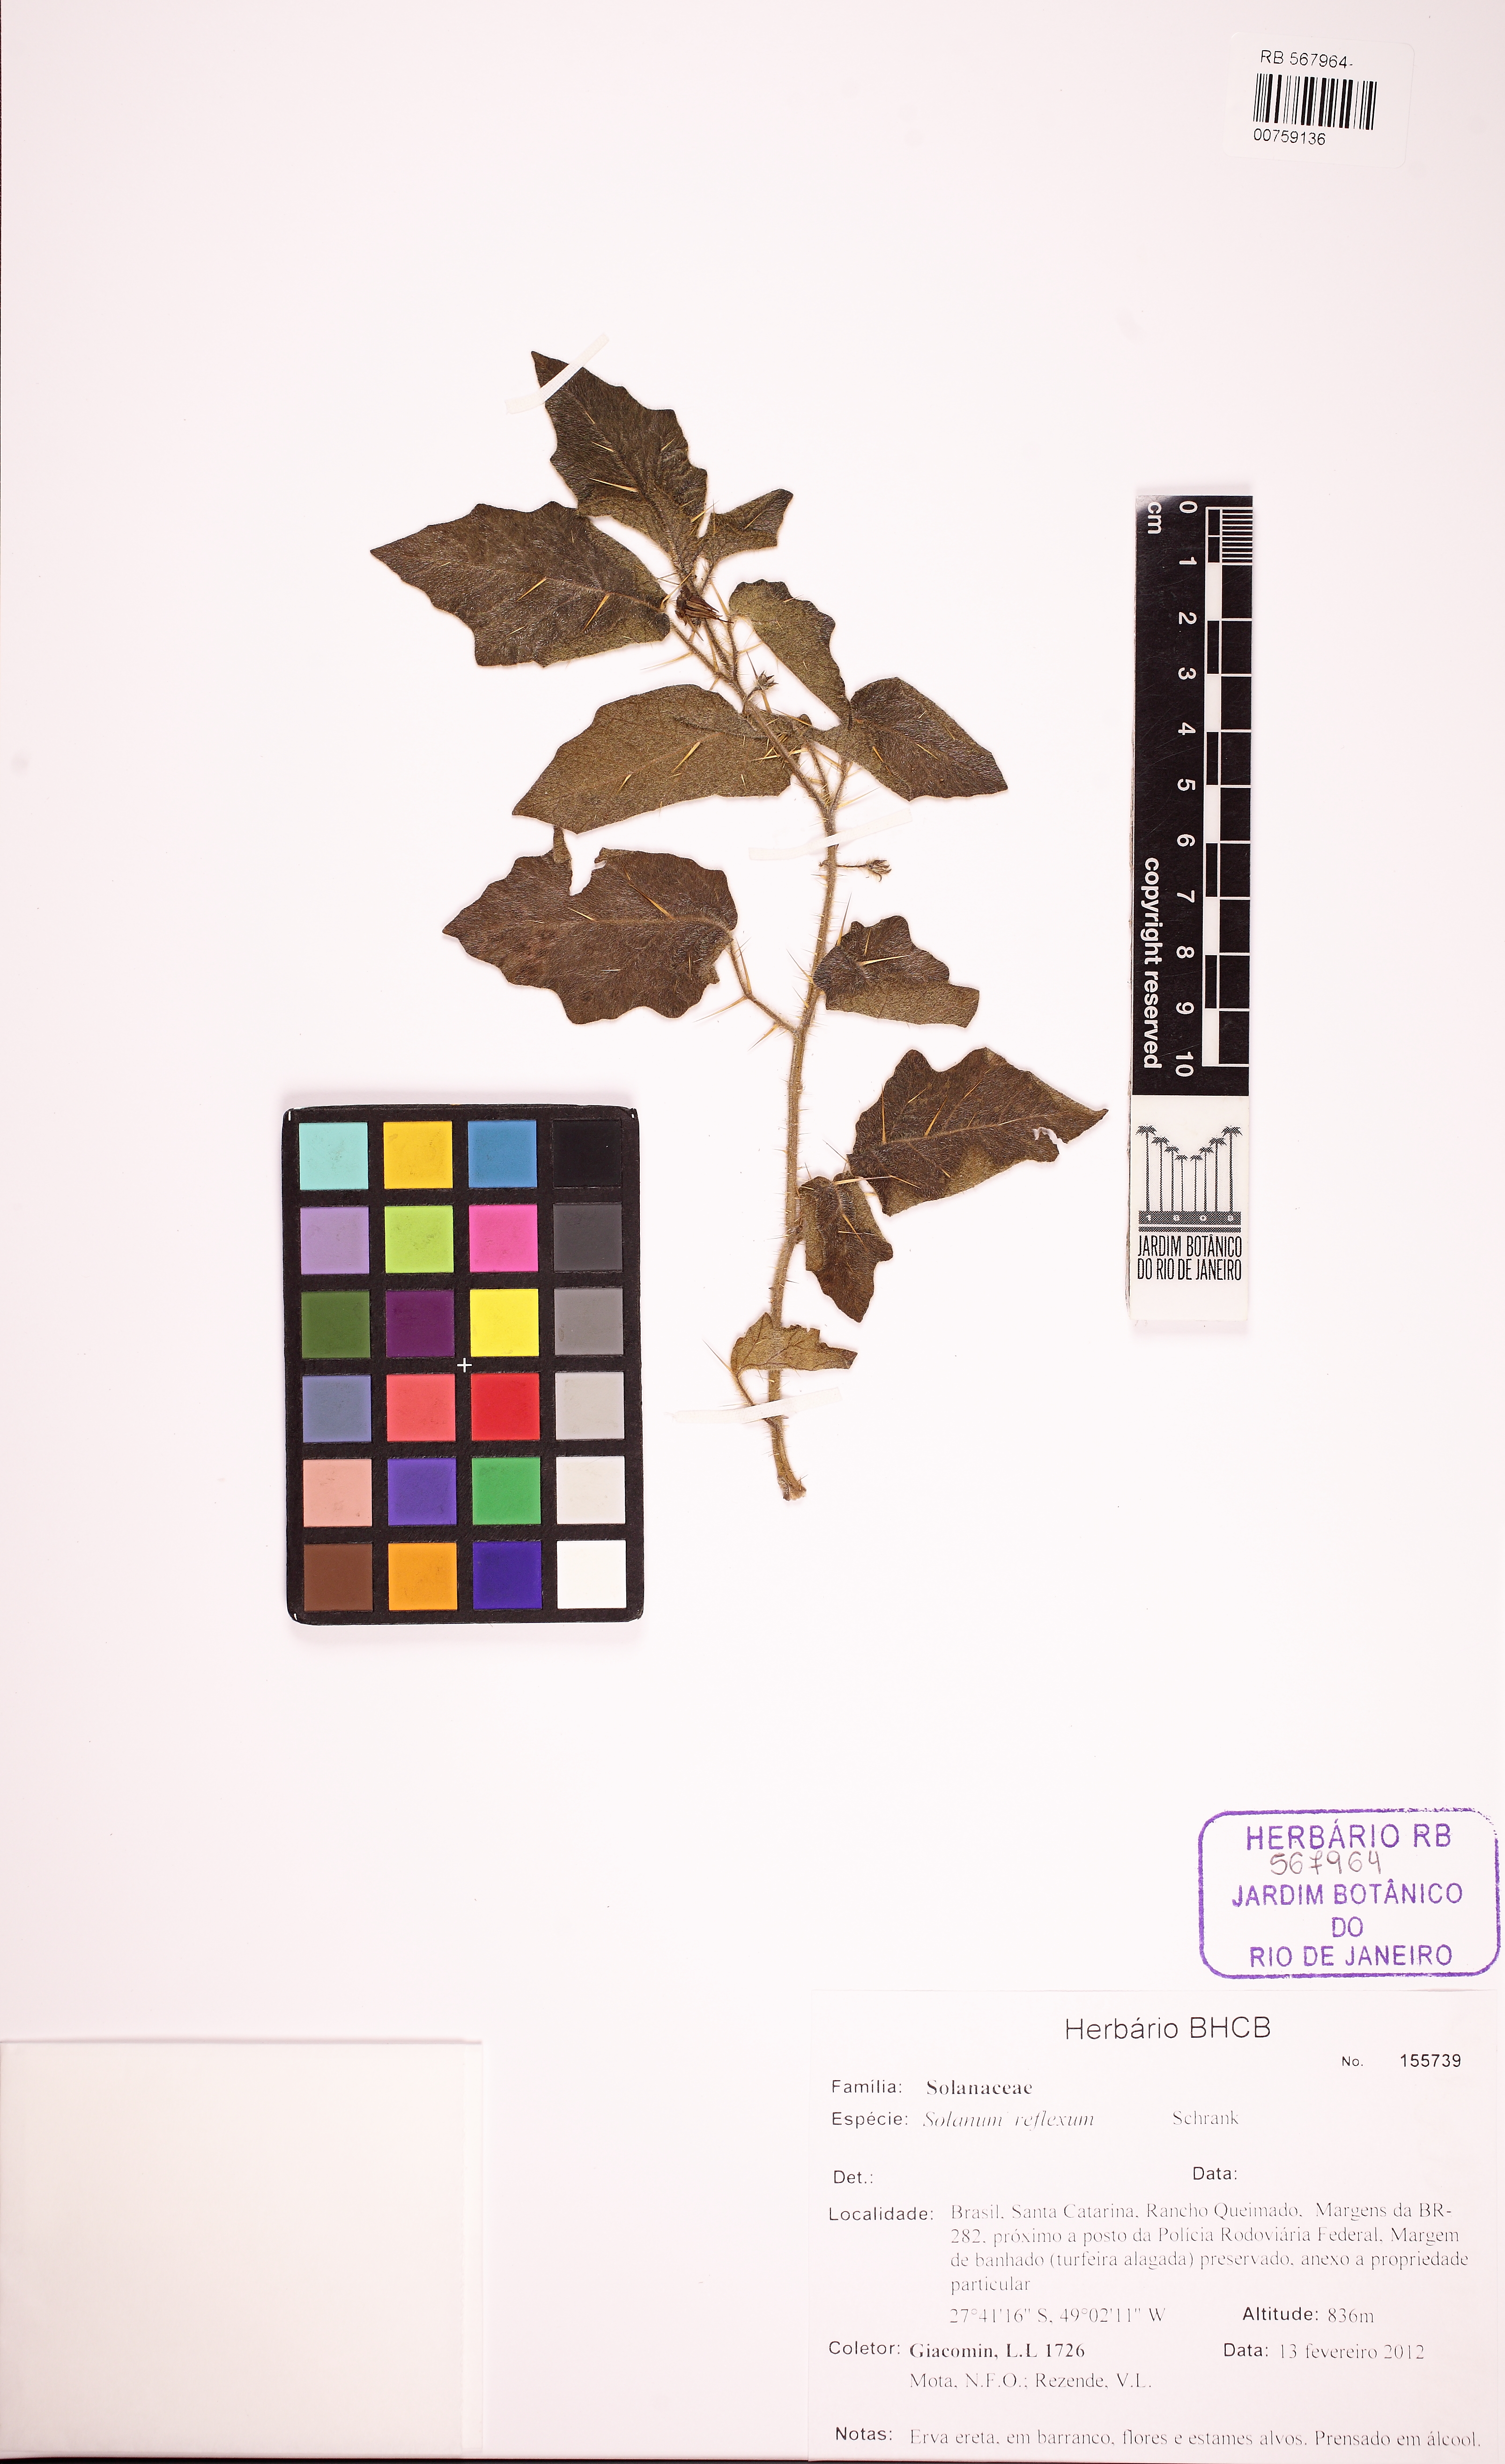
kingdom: Plantae
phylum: Tracheophyta
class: Magnoliopsida
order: Solanales
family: Solanaceae
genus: Solanum
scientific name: Solanum aculeatissimum
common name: Dutch eggplant
